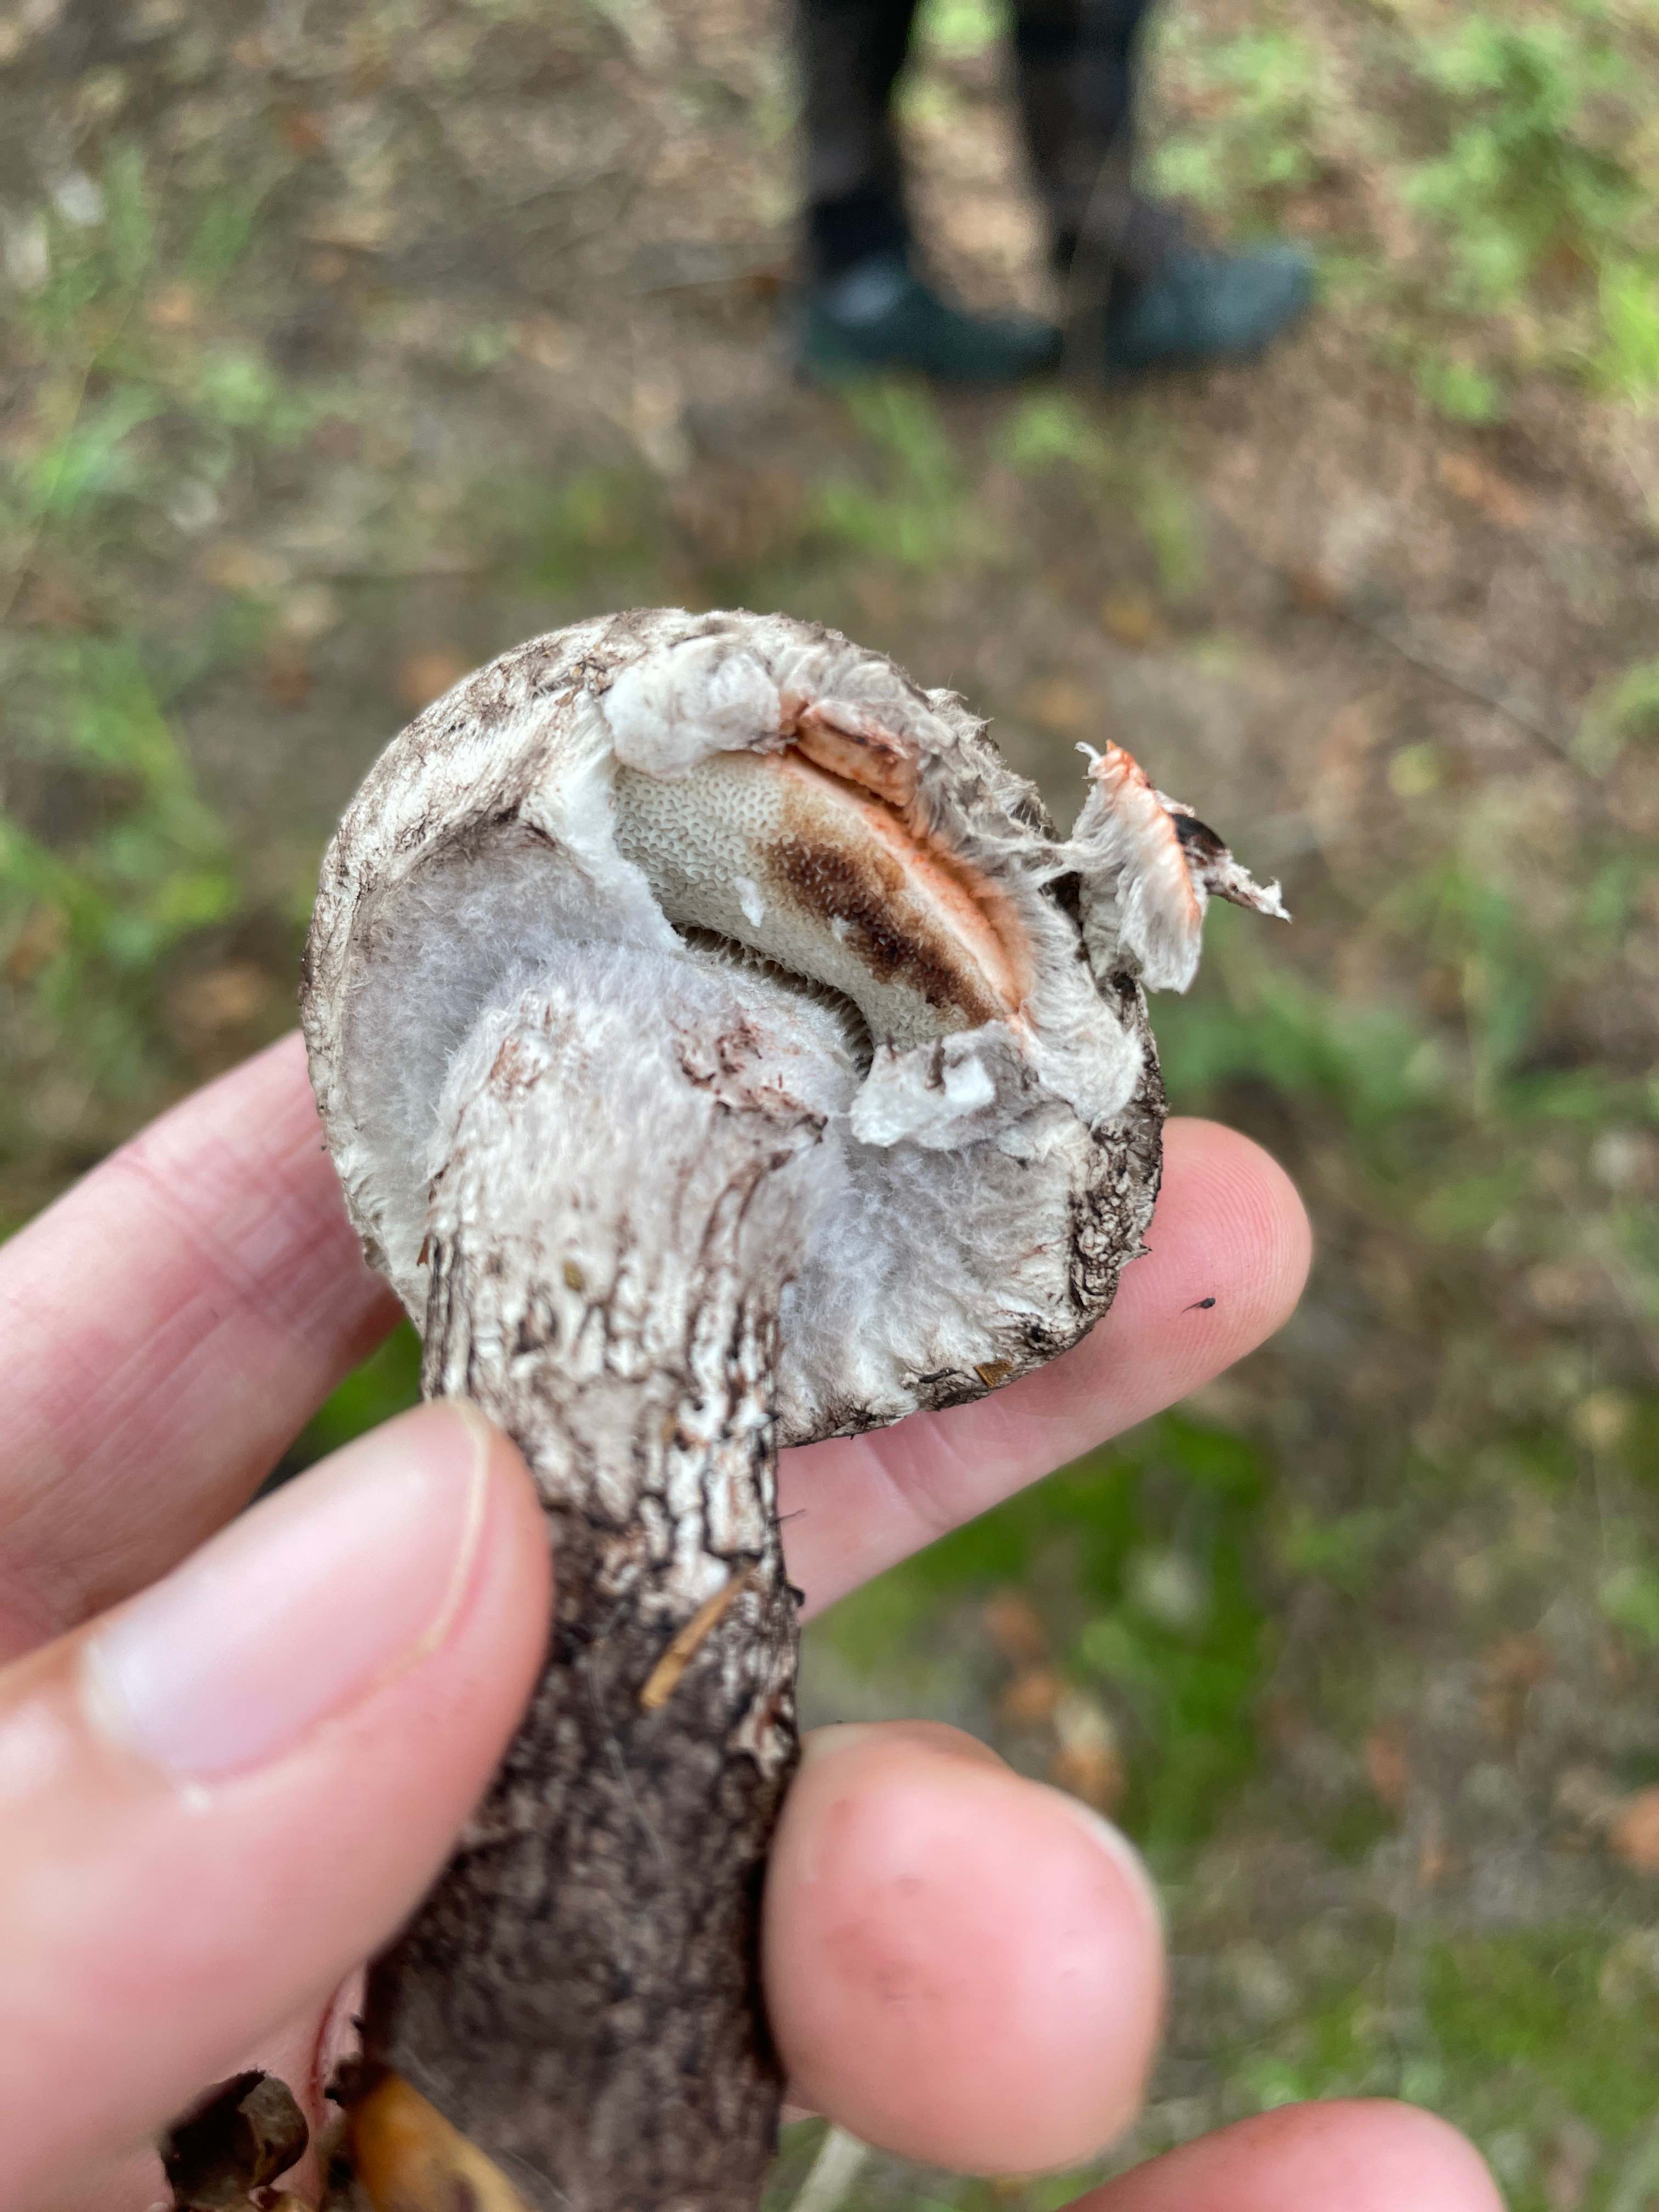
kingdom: Fungi
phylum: Basidiomycota
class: Agaricomycetes
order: Boletales
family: Boletaceae
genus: Strobilomyces
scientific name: Strobilomyces strobilaceus
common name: koglerørhat
